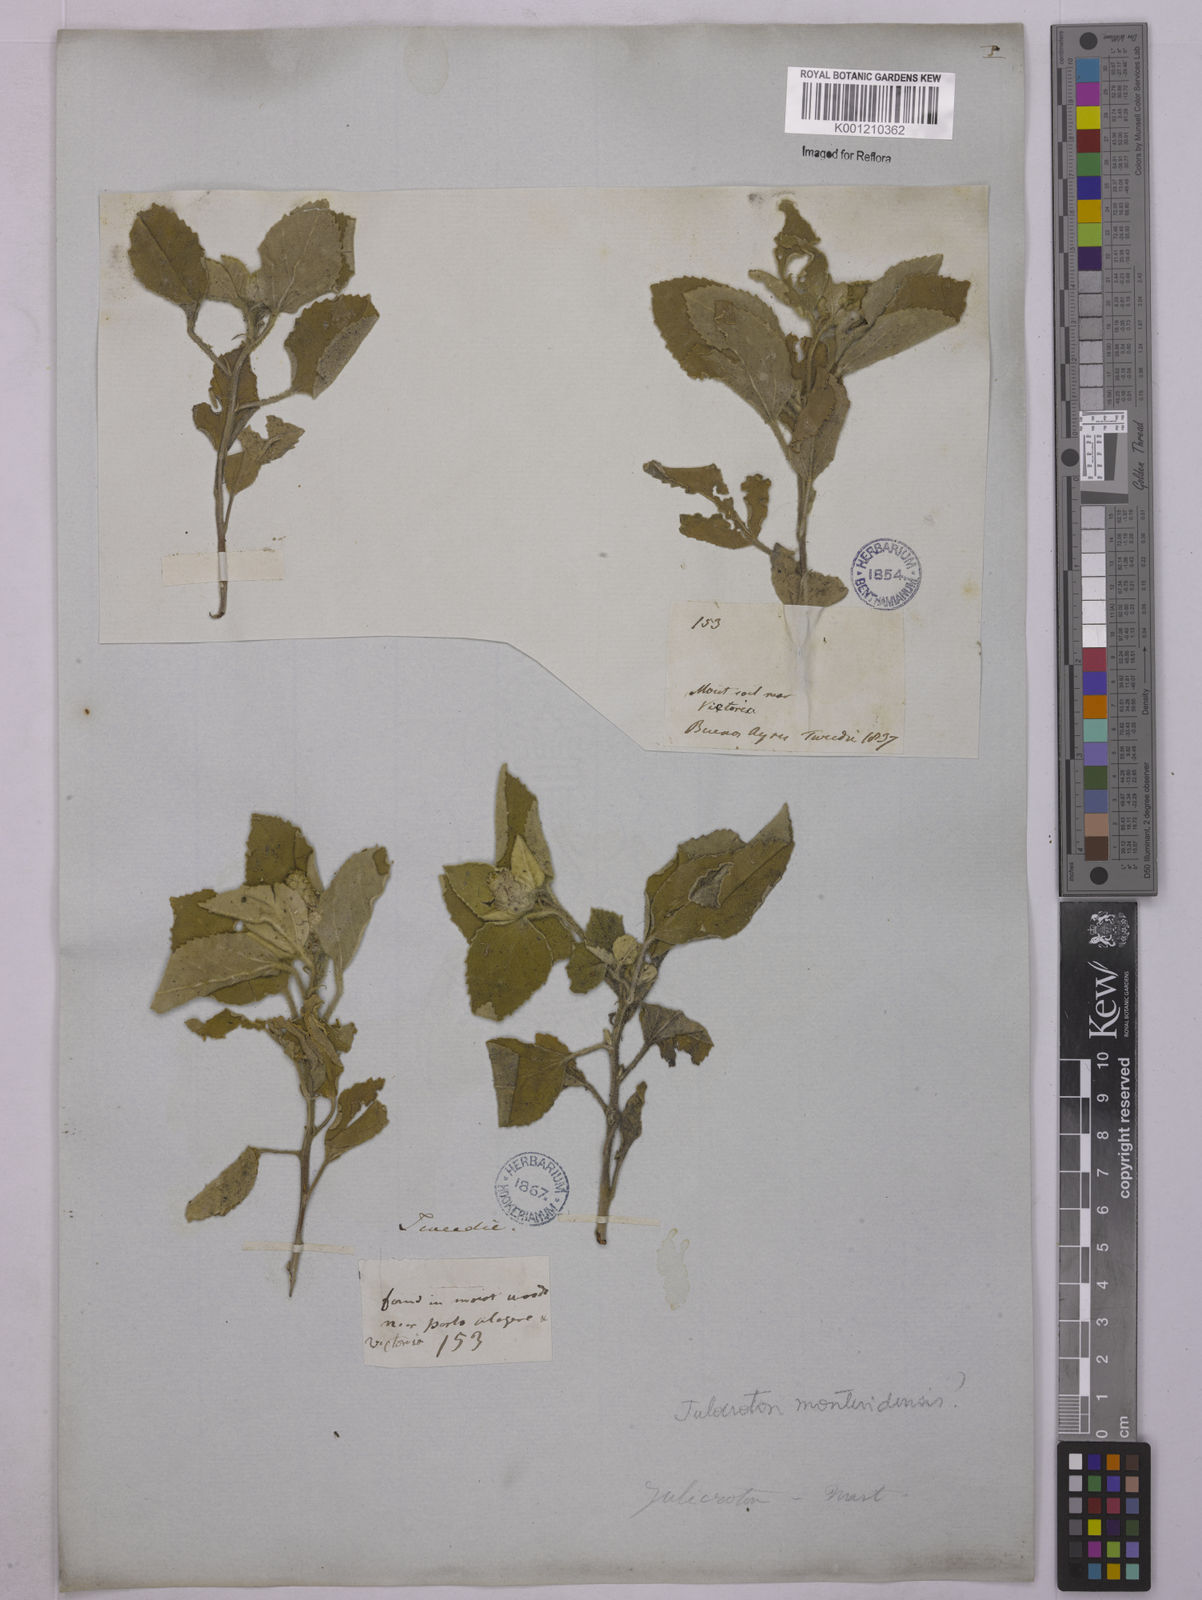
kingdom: Plantae
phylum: Tracheophyta
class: Magnoliopsida
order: Malpighiales
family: Euphorbiaceae
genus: Croton
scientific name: Croton
